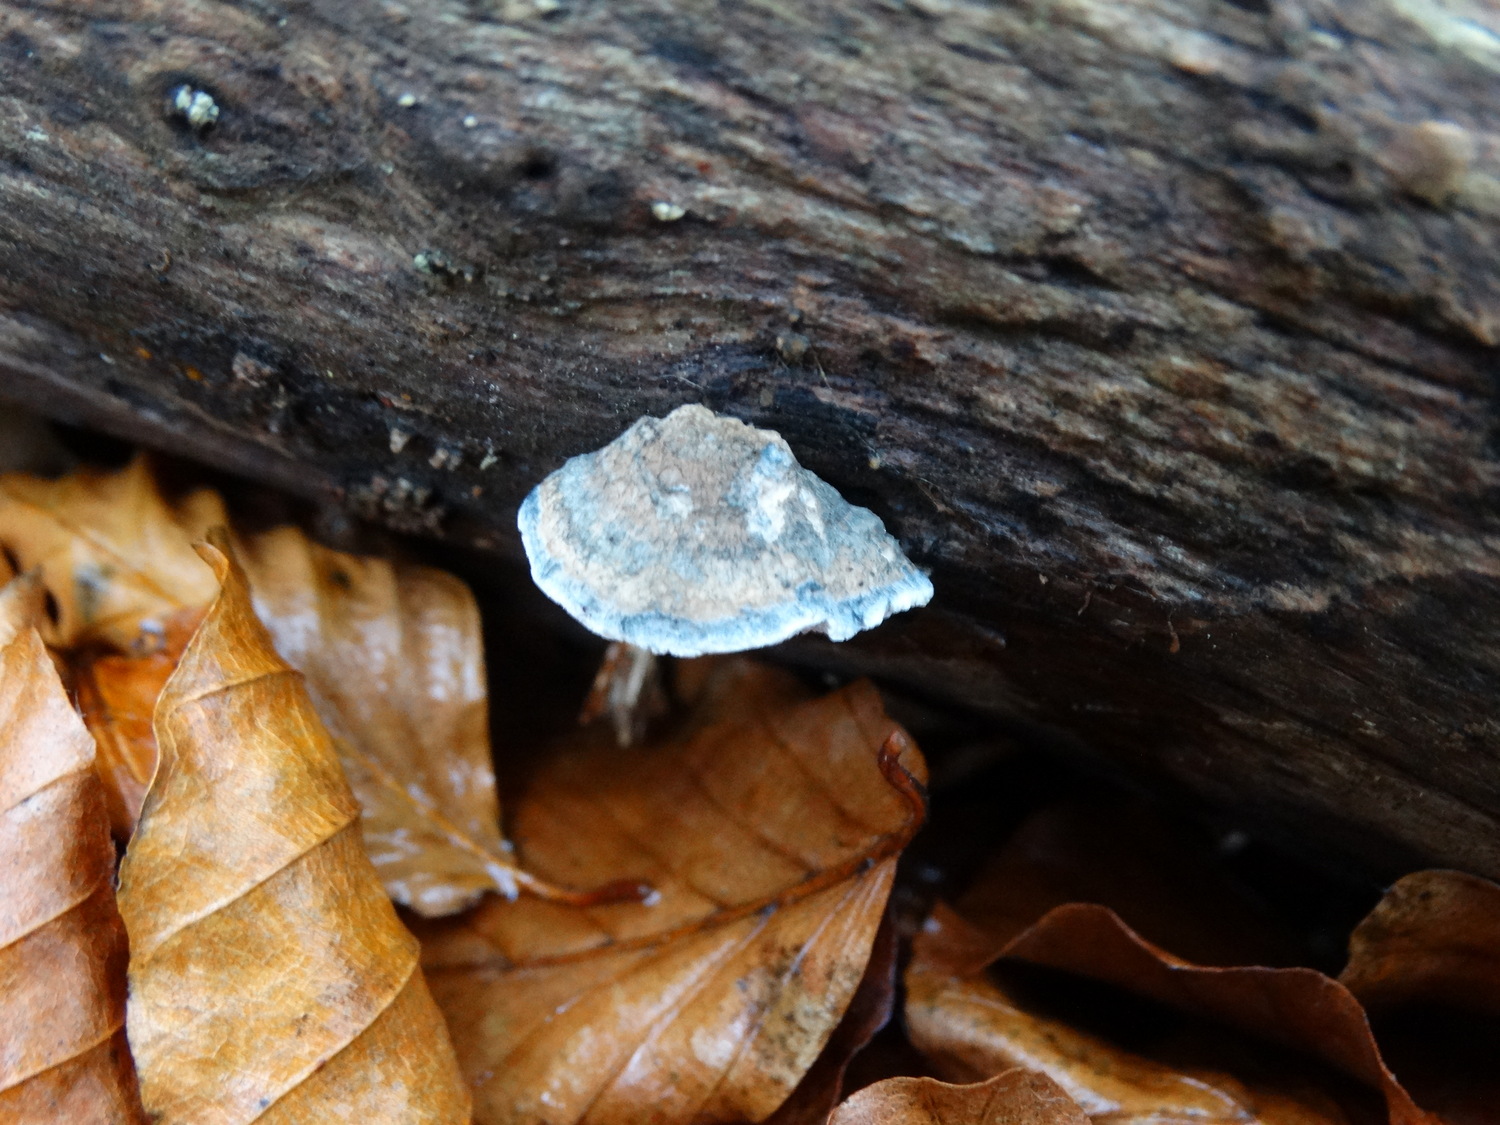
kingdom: Fungi
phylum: Basidiomycota
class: Agaricomycetes
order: Polyporales
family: Polyporaceae
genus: Cyanosporus
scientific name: Cyanosporus alni
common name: blegblå kødporesvamp
